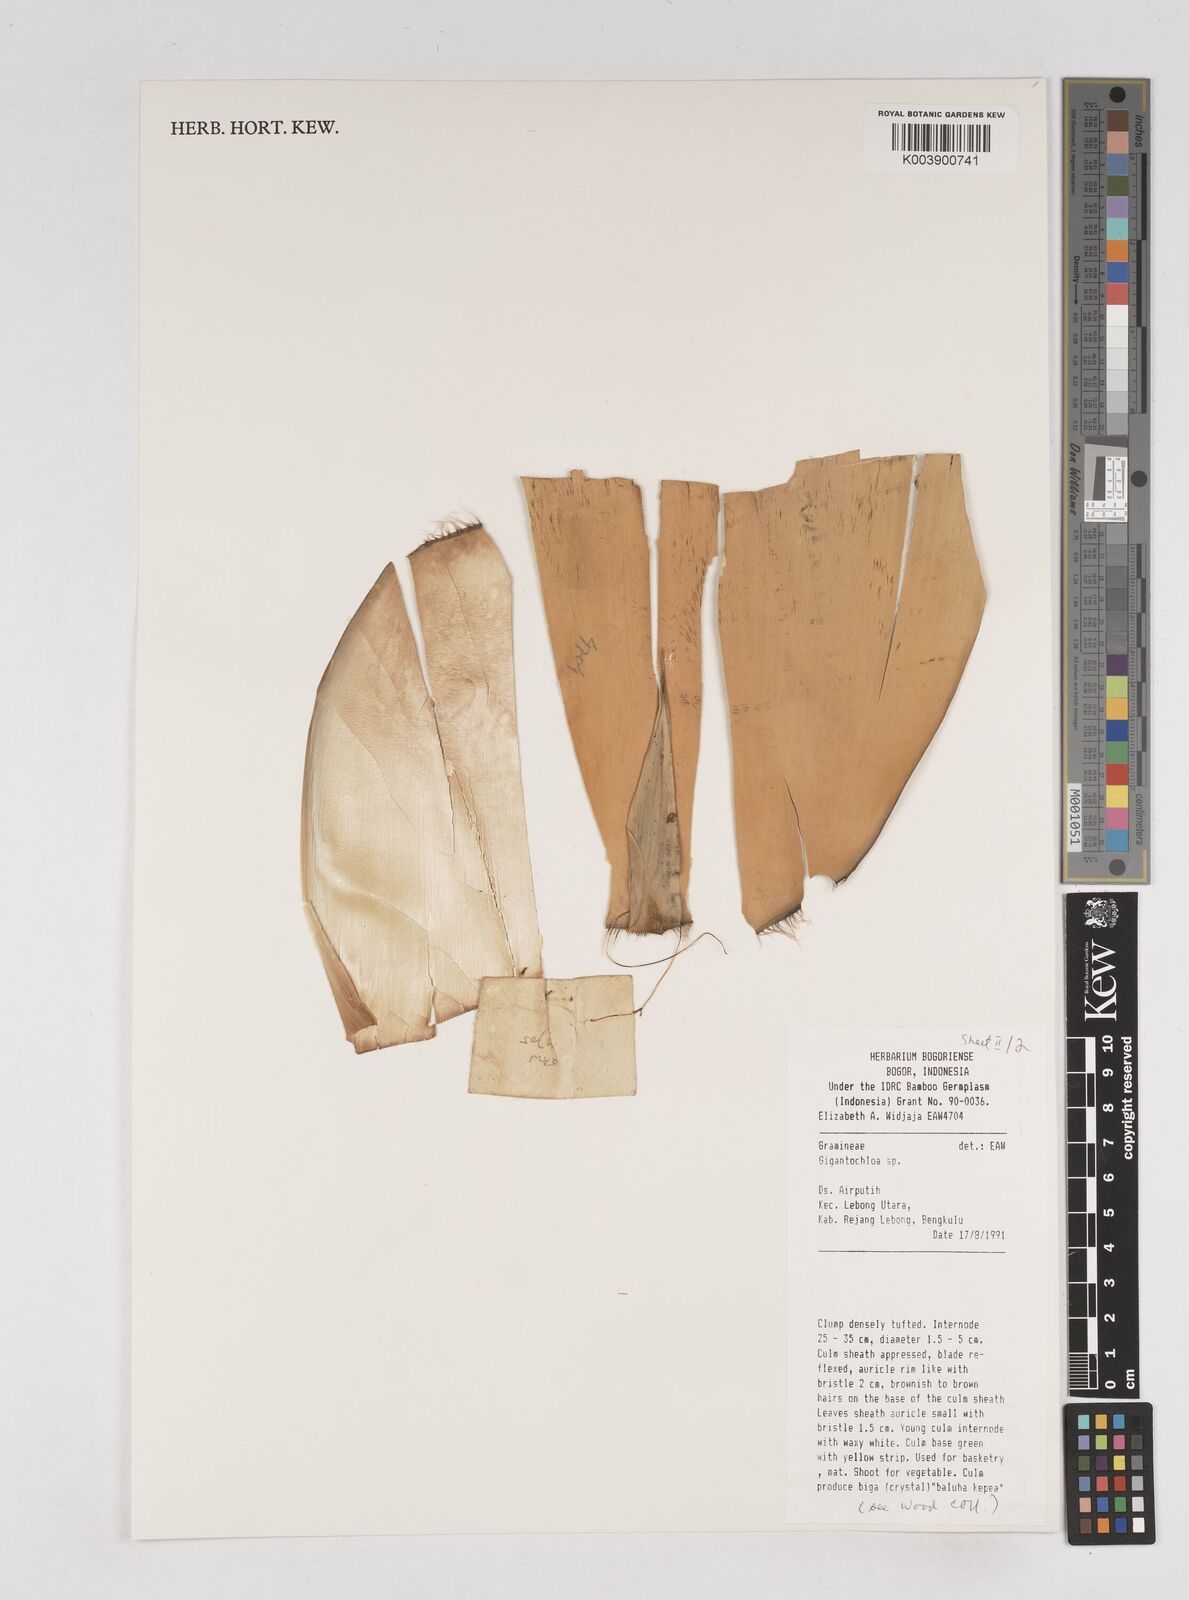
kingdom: Plantae
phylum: Tracheophyta
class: Liliopsida
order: Poales
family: Poaceae
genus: Gigantochloa
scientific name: Gigantochloa
